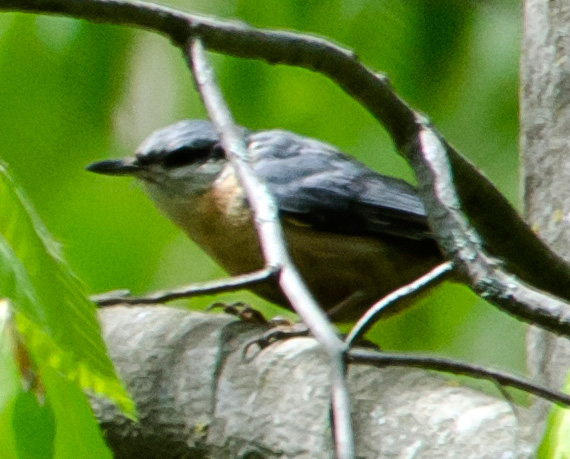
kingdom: Animalia
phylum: Chordata
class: Aves
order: Passeriformes
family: Sittidae
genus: Sitta
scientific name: Sitta europaea
